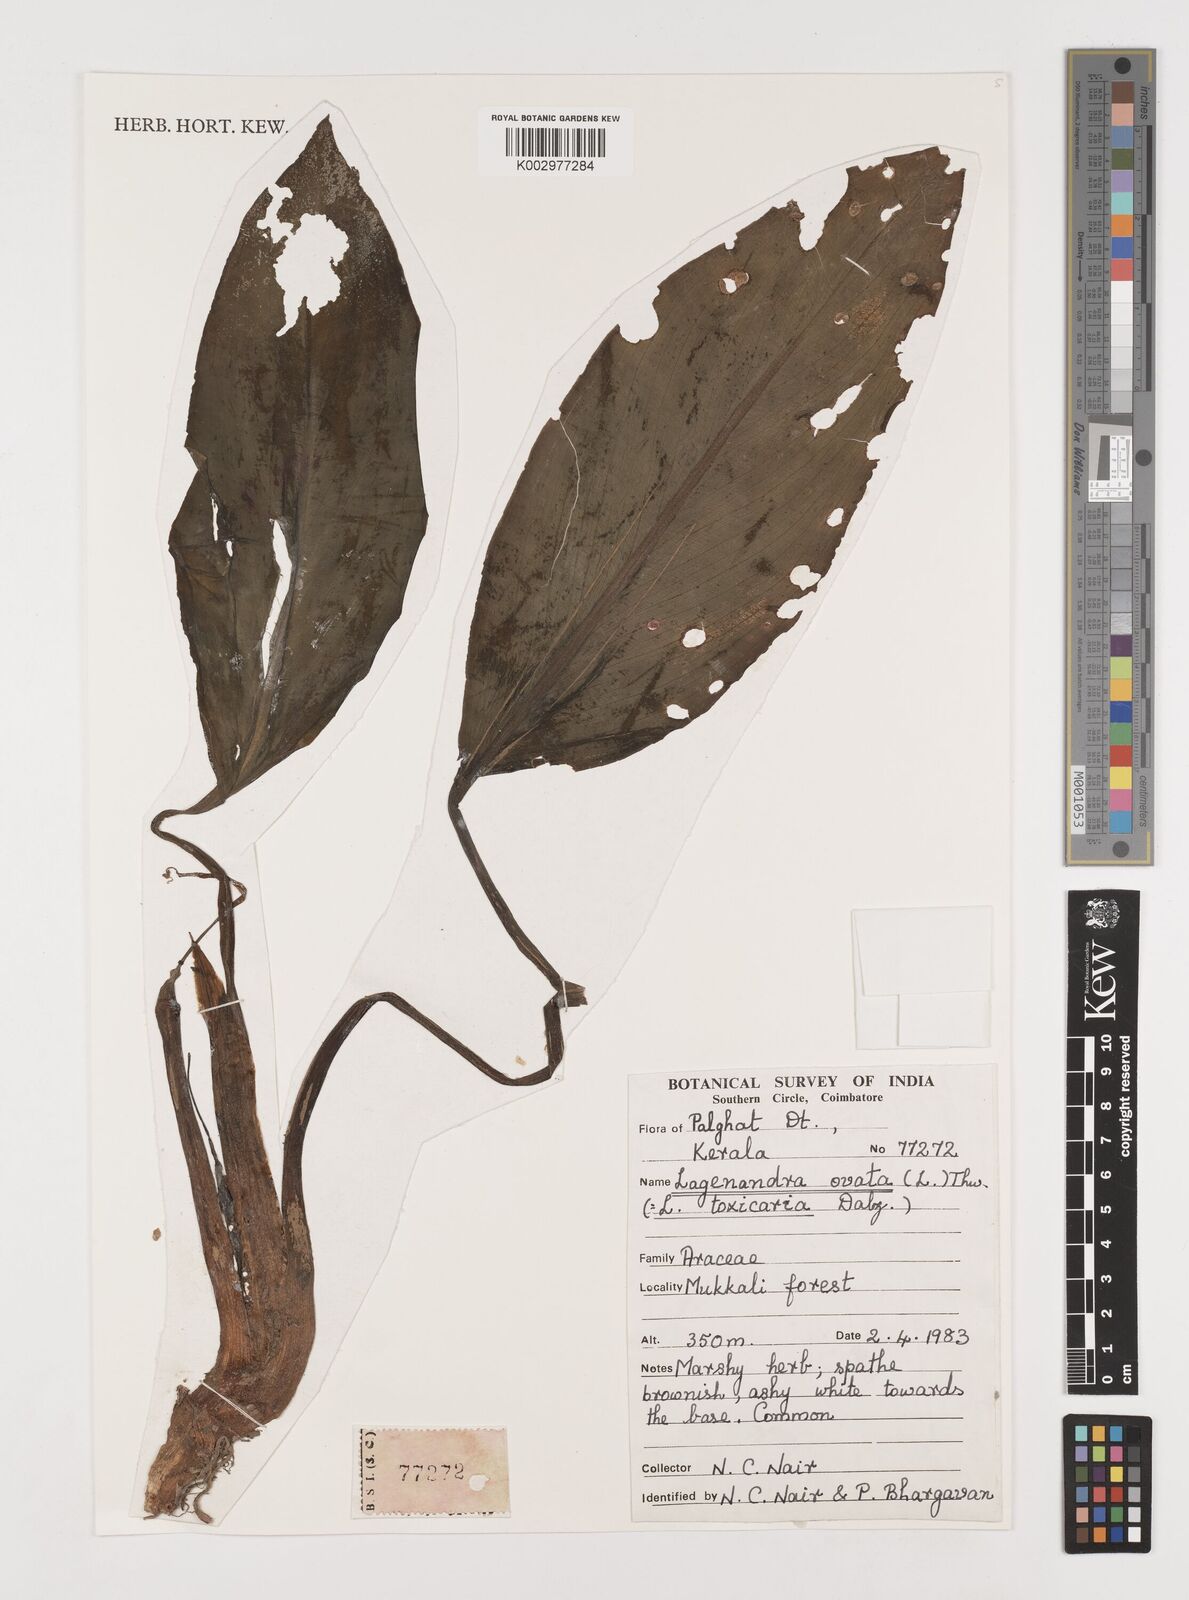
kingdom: Plantae
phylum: Tracheophyta
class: Liliopsida
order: Alismatales
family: Araceae
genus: Lagenandra
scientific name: Lagenandra ovata
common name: Malayan sword
